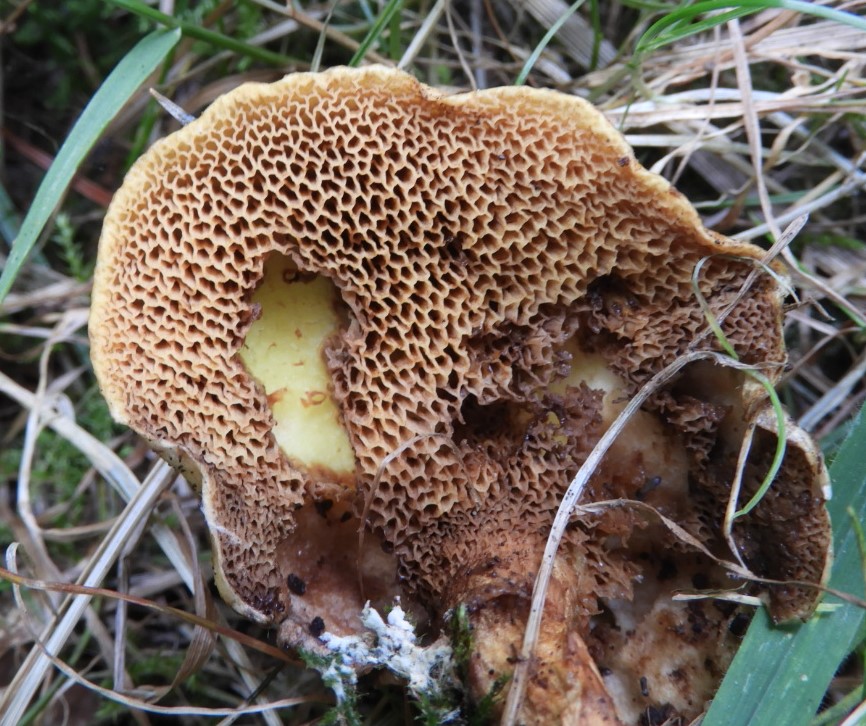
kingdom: Fungi
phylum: Basidiomycota
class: Agaricomycetes
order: Boletales
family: Suillaceae
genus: Suillus
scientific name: Suillus grevillei
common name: lærke-slimrørhat
